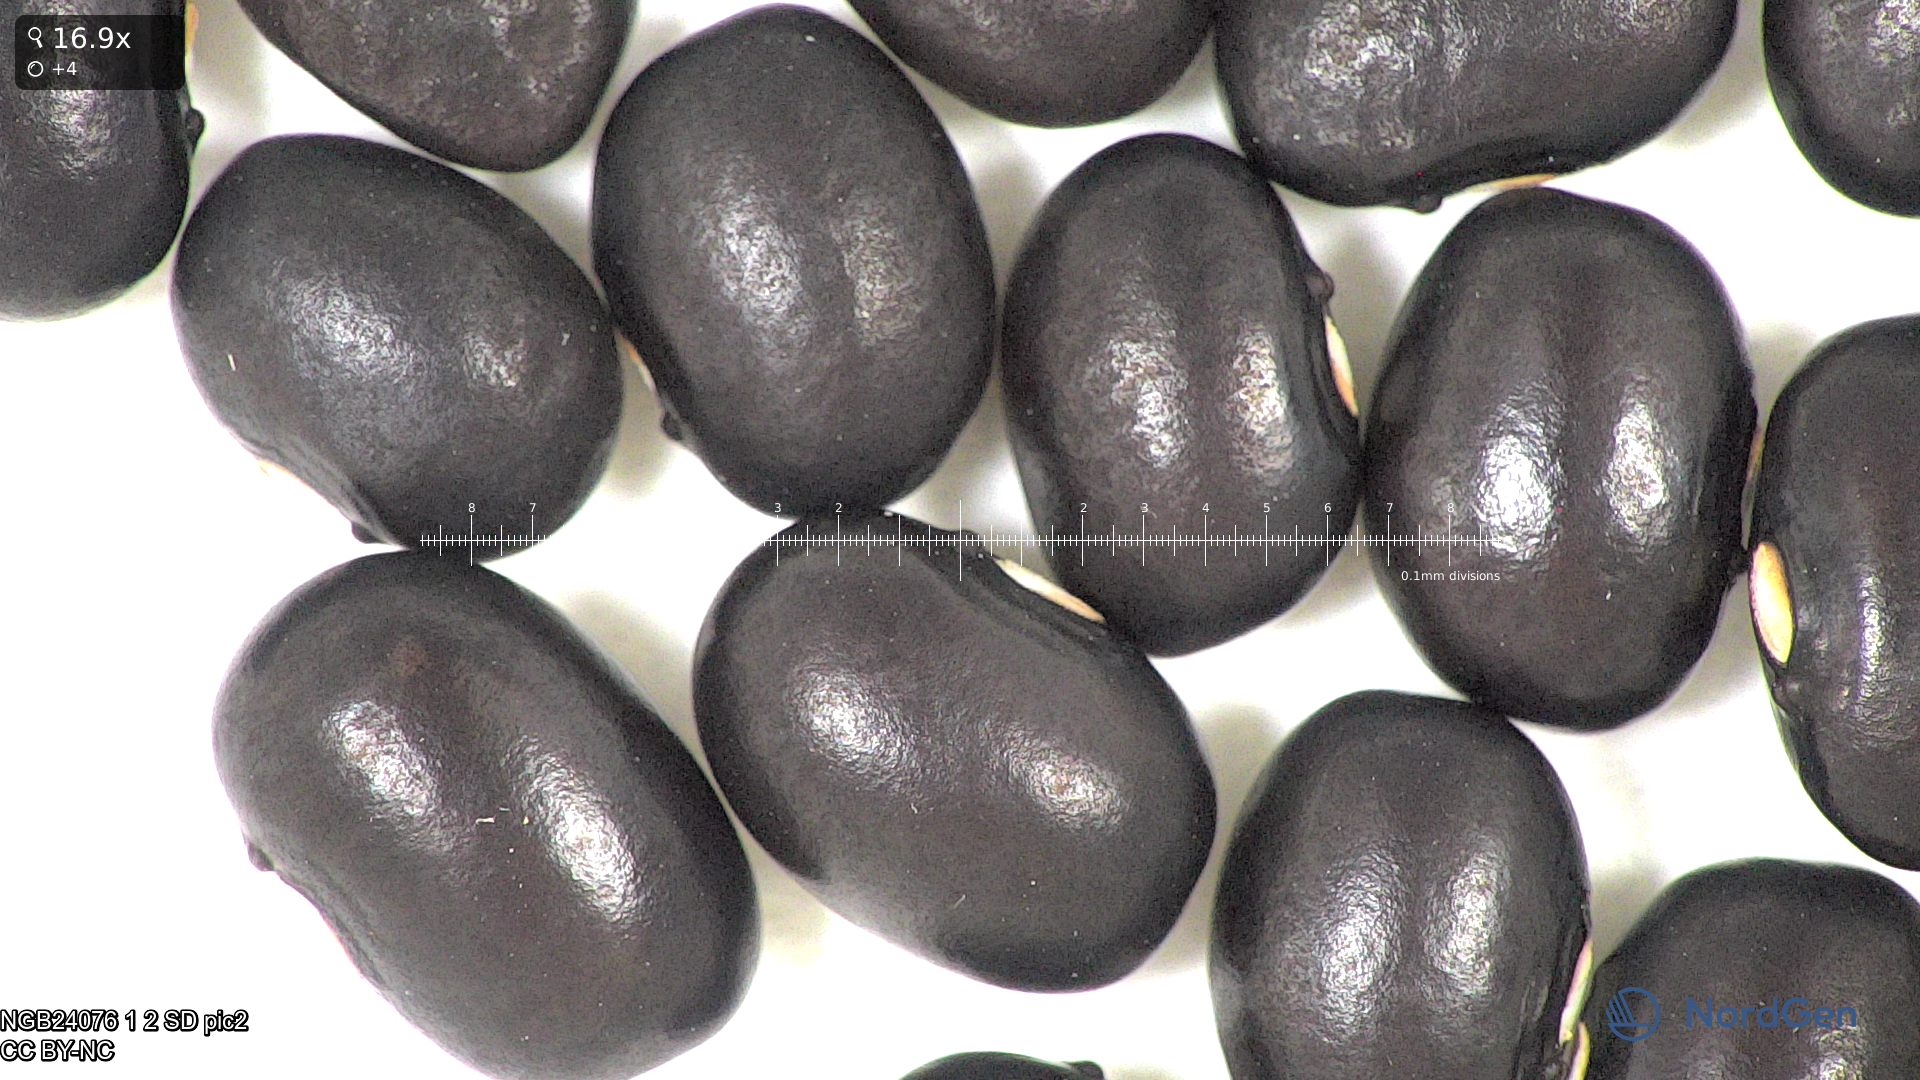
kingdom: Plantae
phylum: Tracheophyta
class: Magnoliopsida
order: Fabales
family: Fabaceae
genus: Phaseolus
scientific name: Phaseolus vulgaris
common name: Bean
